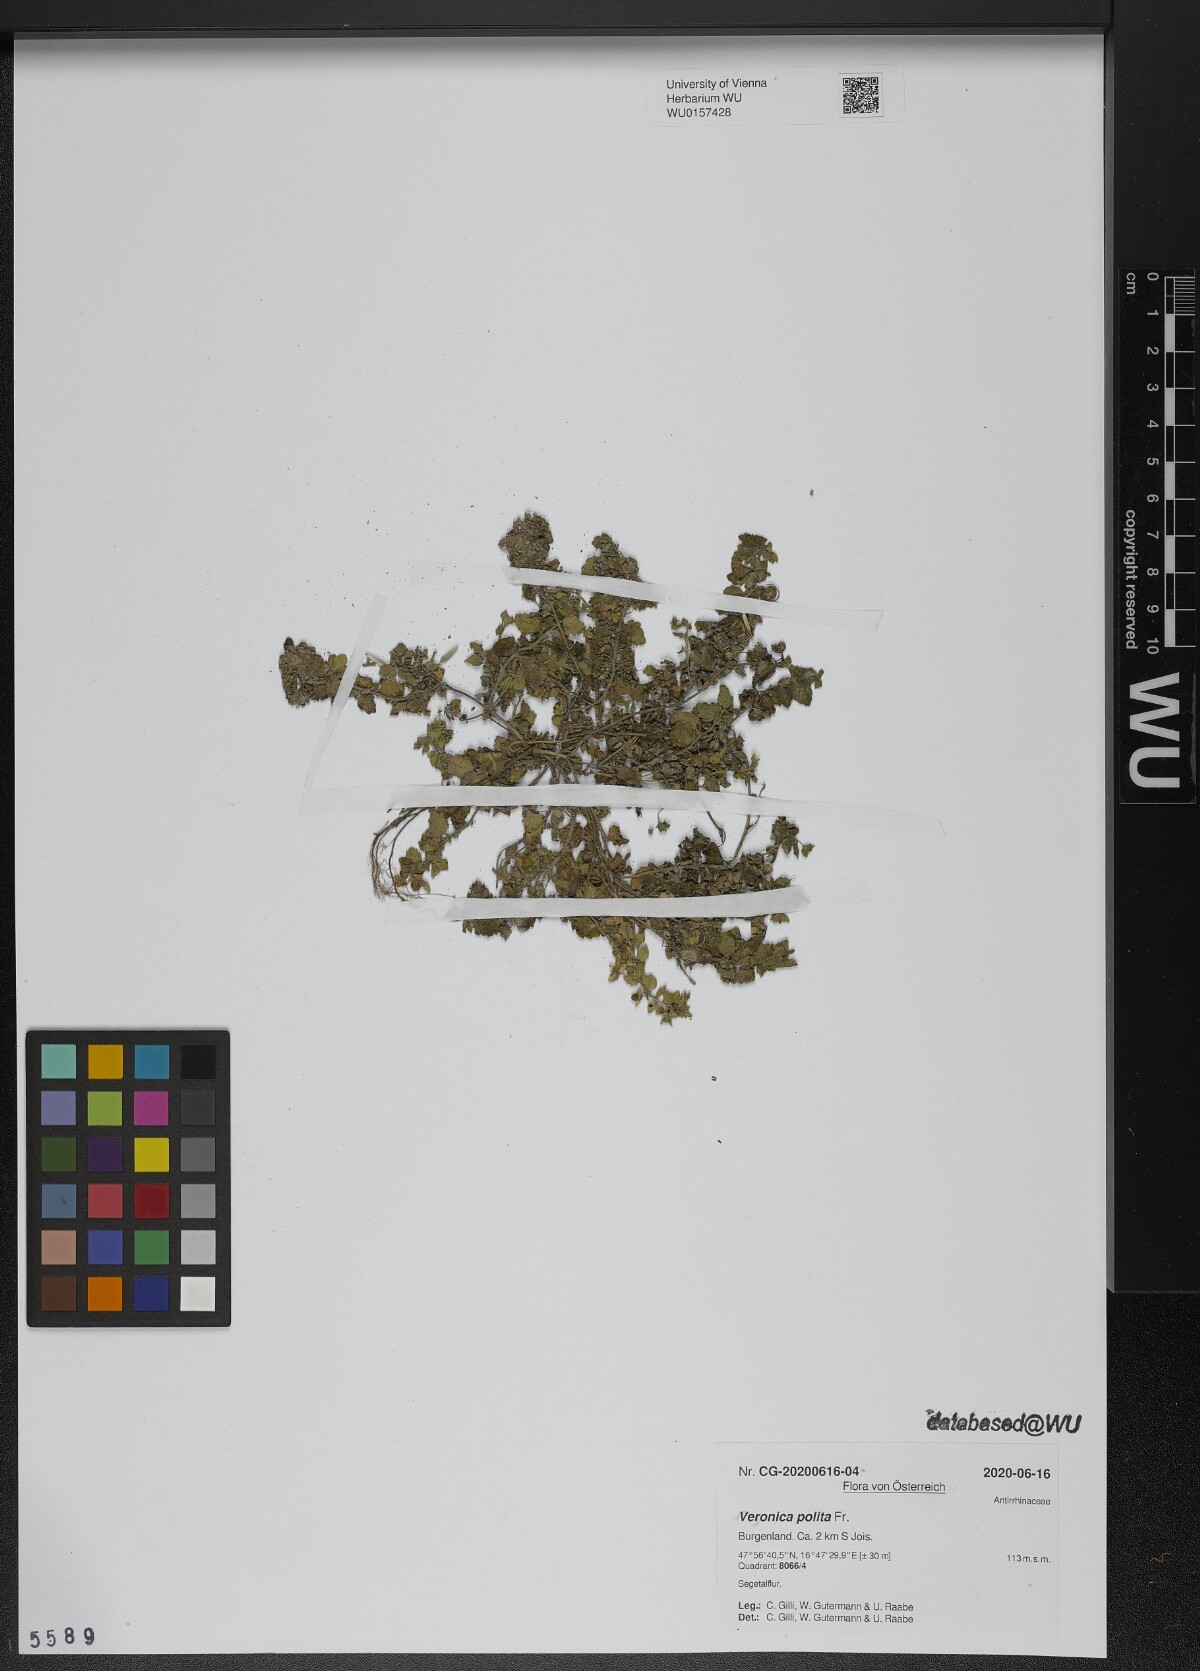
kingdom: Plantae
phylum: Tracheophyta
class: Magnoliopsida
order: Lamiales
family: Plantaginaceae
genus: Veronica
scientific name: Veronica polita
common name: Grey field-speedwell
